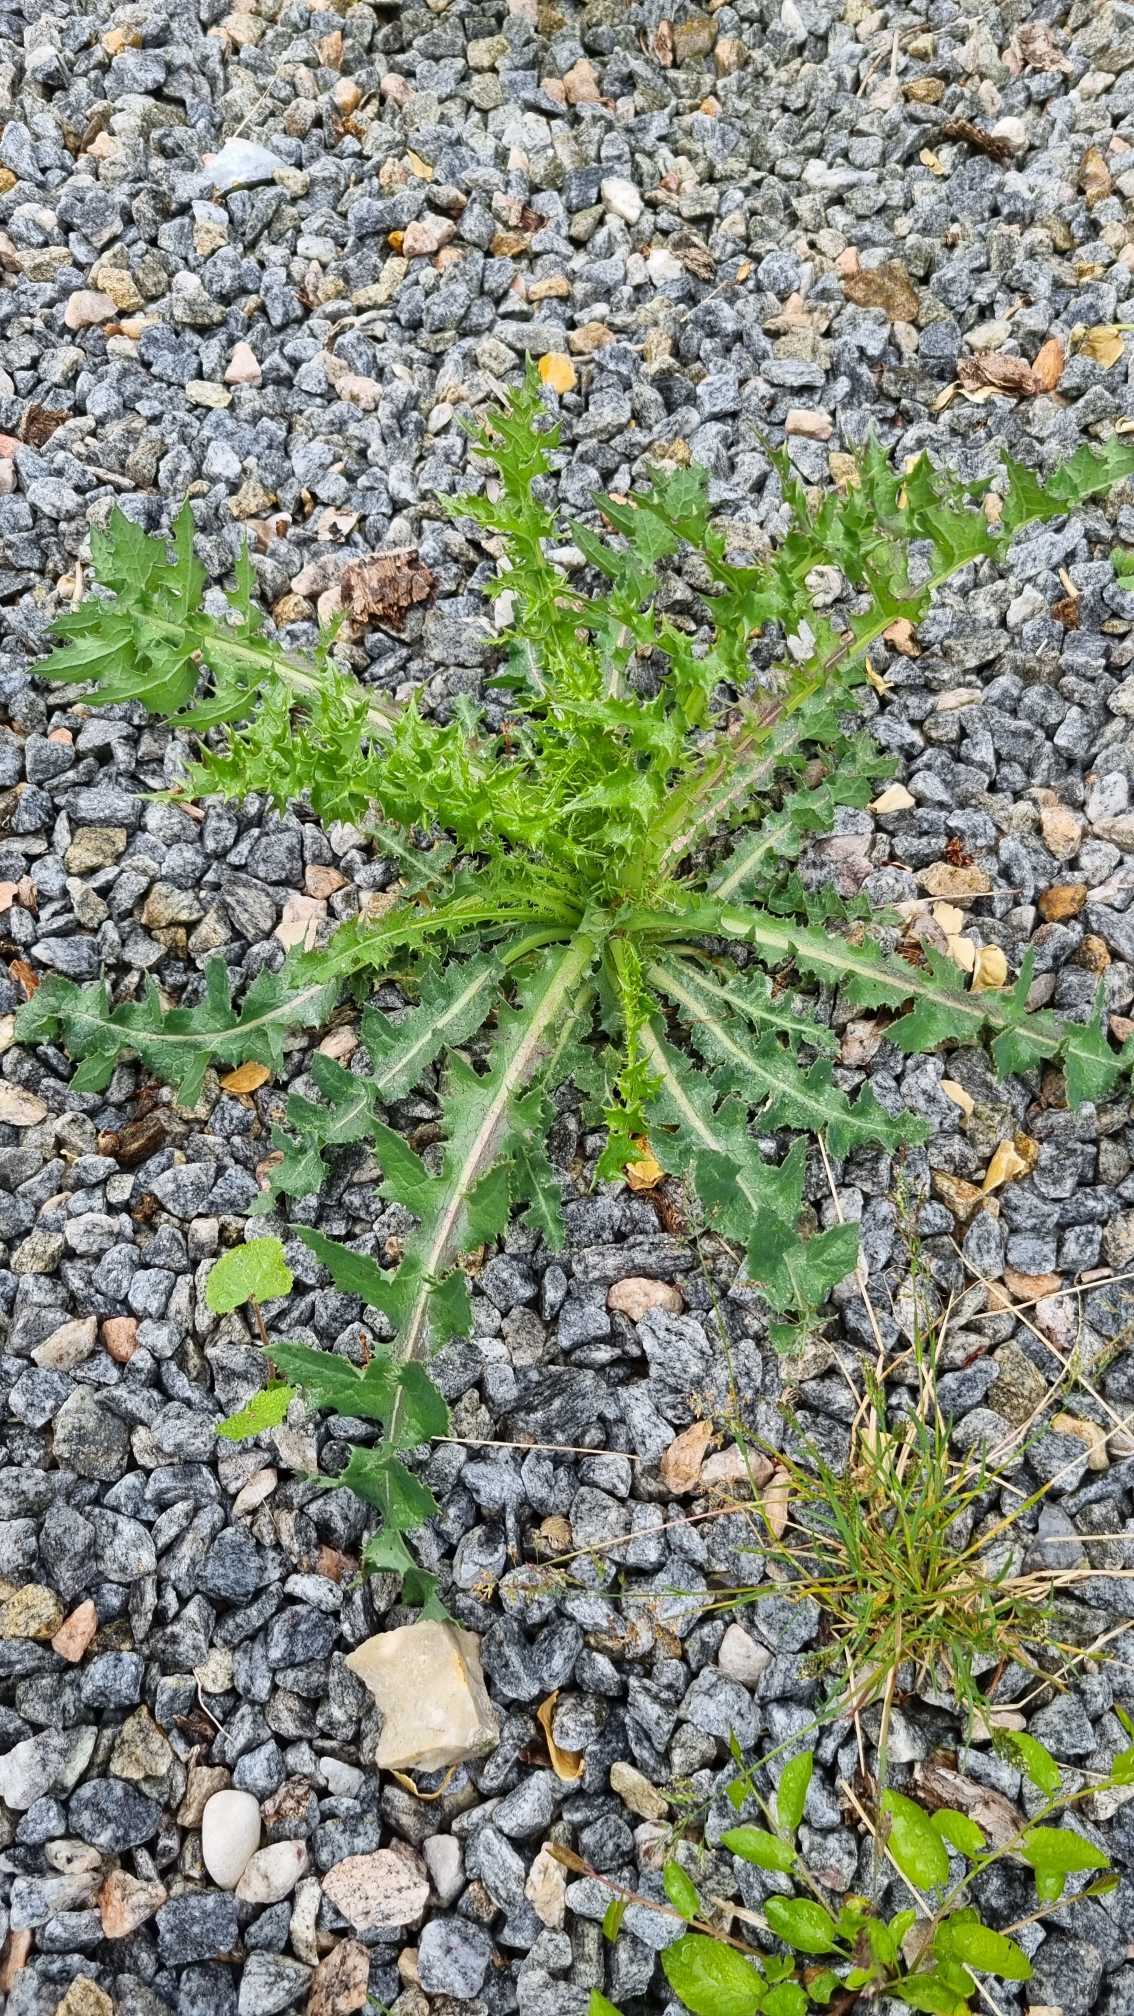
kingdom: Plantae
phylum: Tracheophyta
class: Magnoliopsida
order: Asterales
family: Asteraceae
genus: Sonchus
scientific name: Sonchus asper
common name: Ru svinemælk
